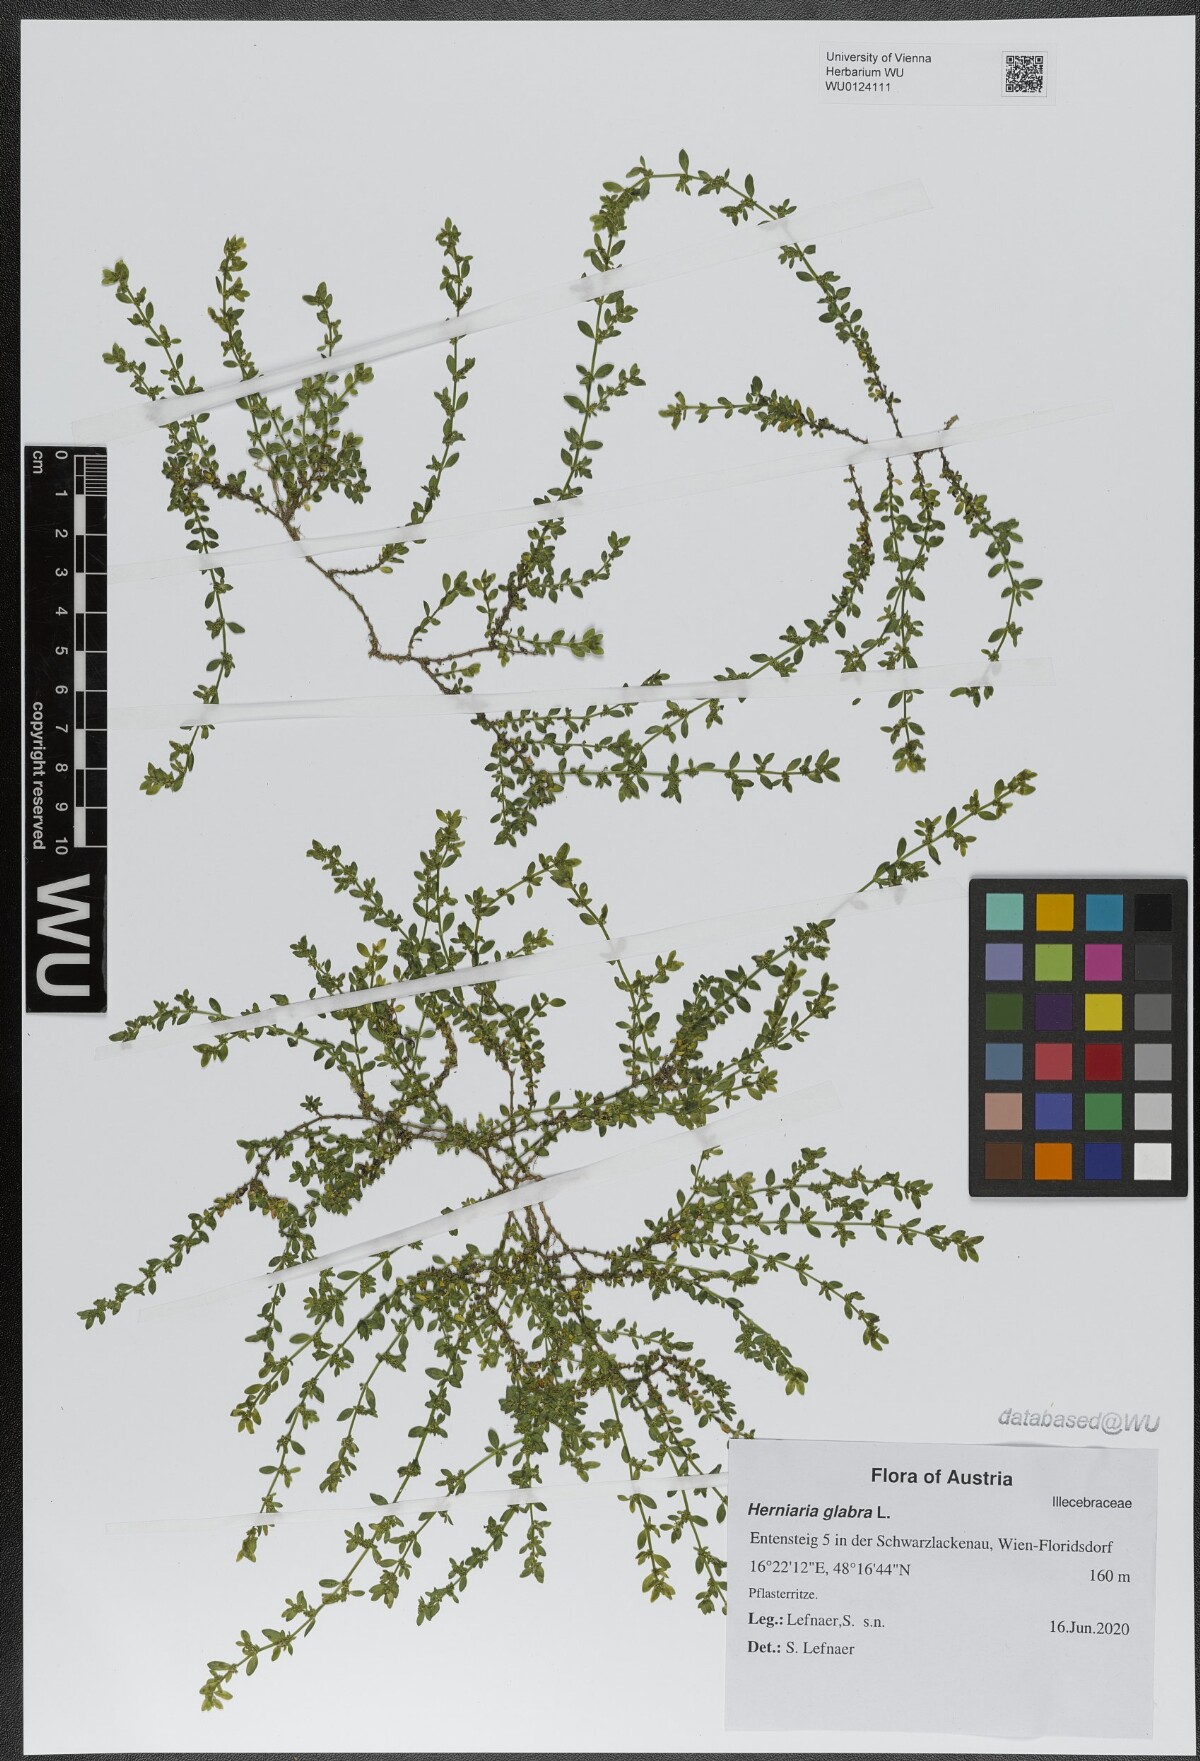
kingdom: Plantae
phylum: Tracheophyta
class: Magnoliopsida
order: Caryophyllales
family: Caryophyllaceae
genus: Herniaria
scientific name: Herniaria glabra
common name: Smooth rupturewort
